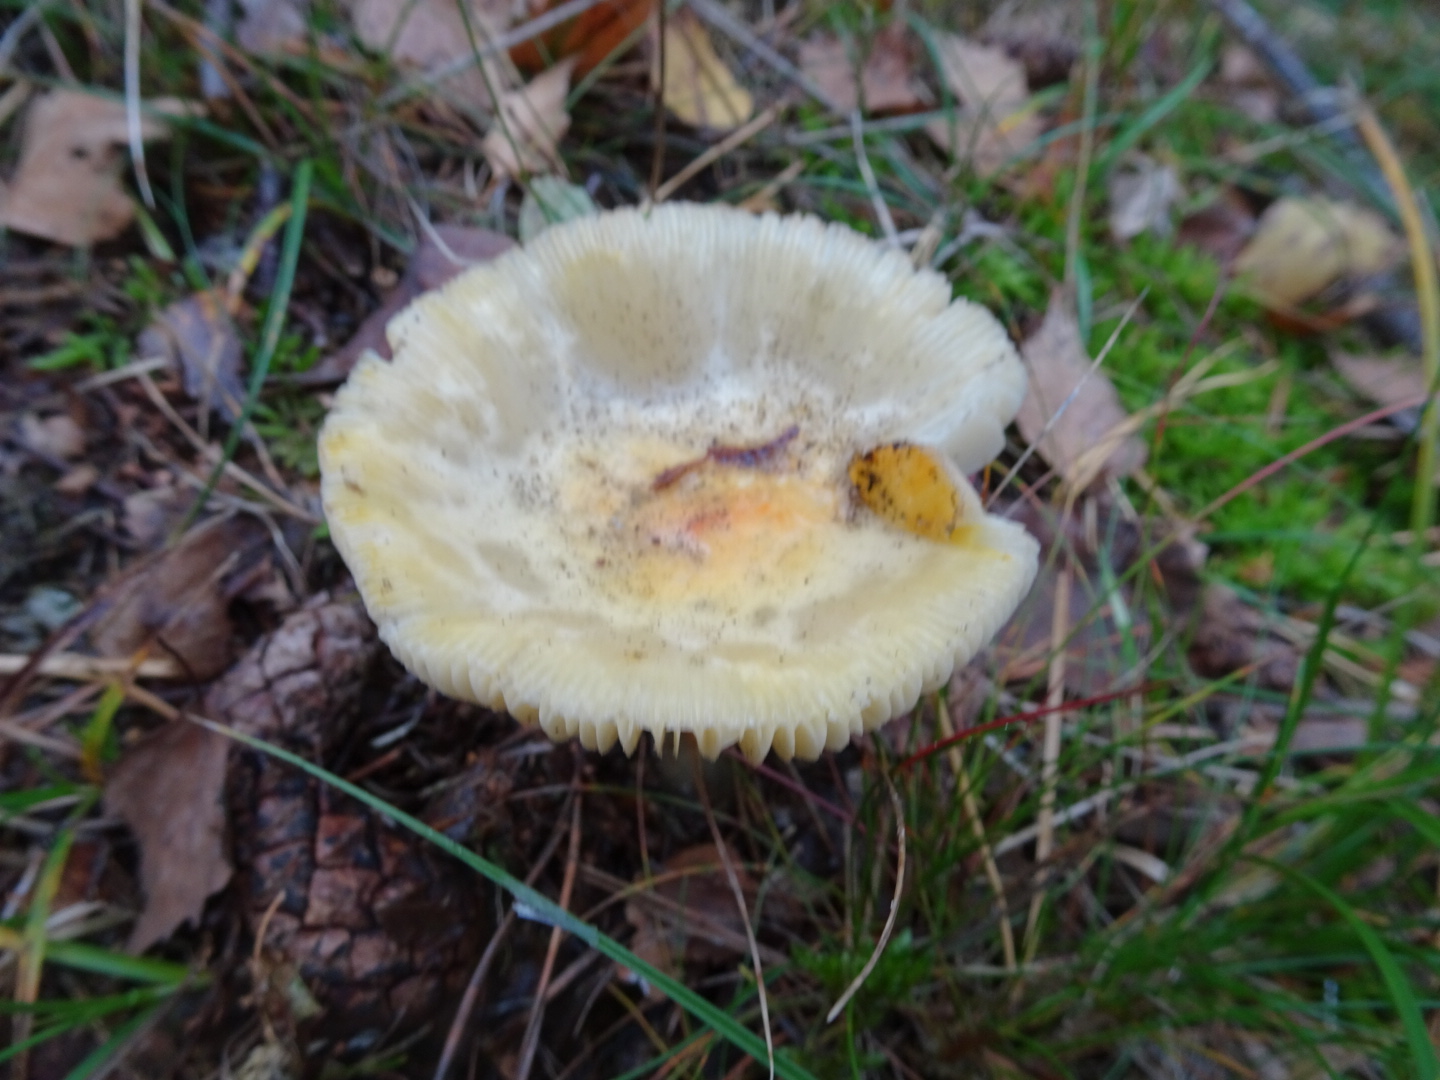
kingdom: Fungi
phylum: Basidiomycota
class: Agaricomycetes
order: Agaricales
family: Amanitaceae
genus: Amanita
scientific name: Amanita gemmata
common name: okkergul fluesvamp
